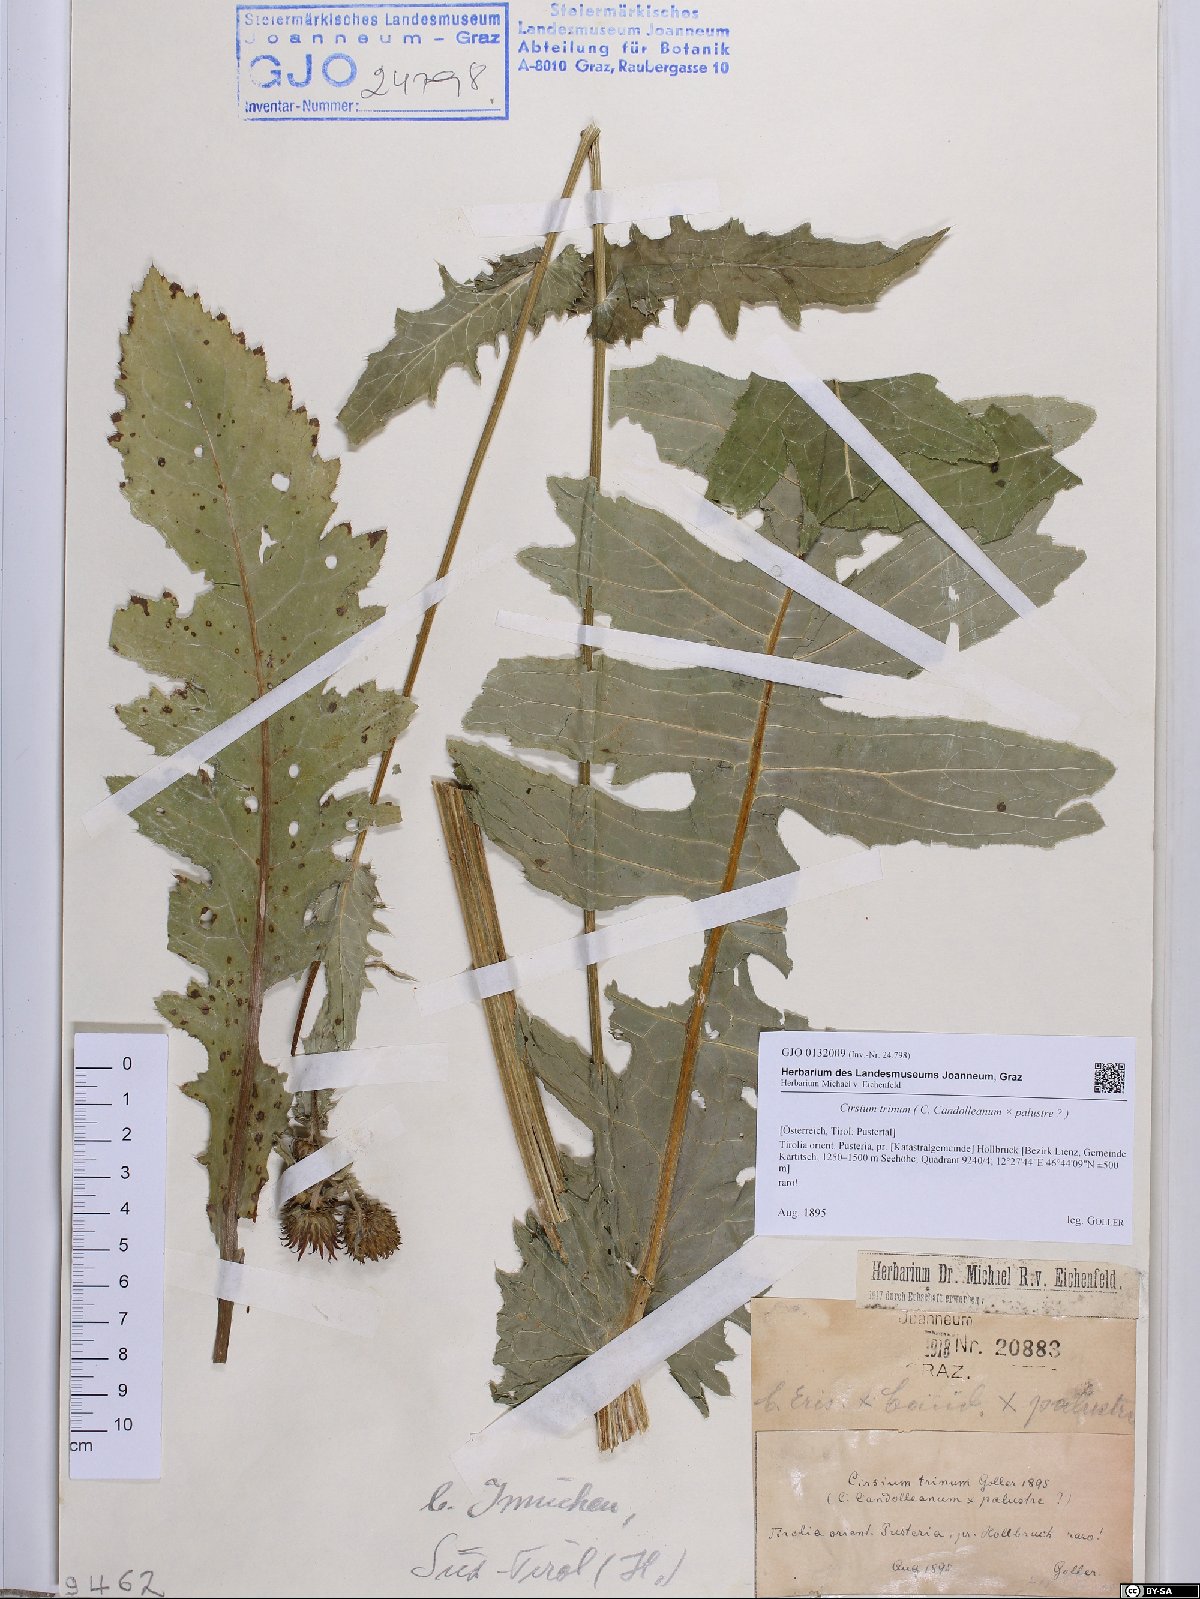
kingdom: Plantae
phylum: Tracheophyta
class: Magnoliopsida
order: Asterales
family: Asteraceae
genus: Cirsium
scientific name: Cirsium trinum
